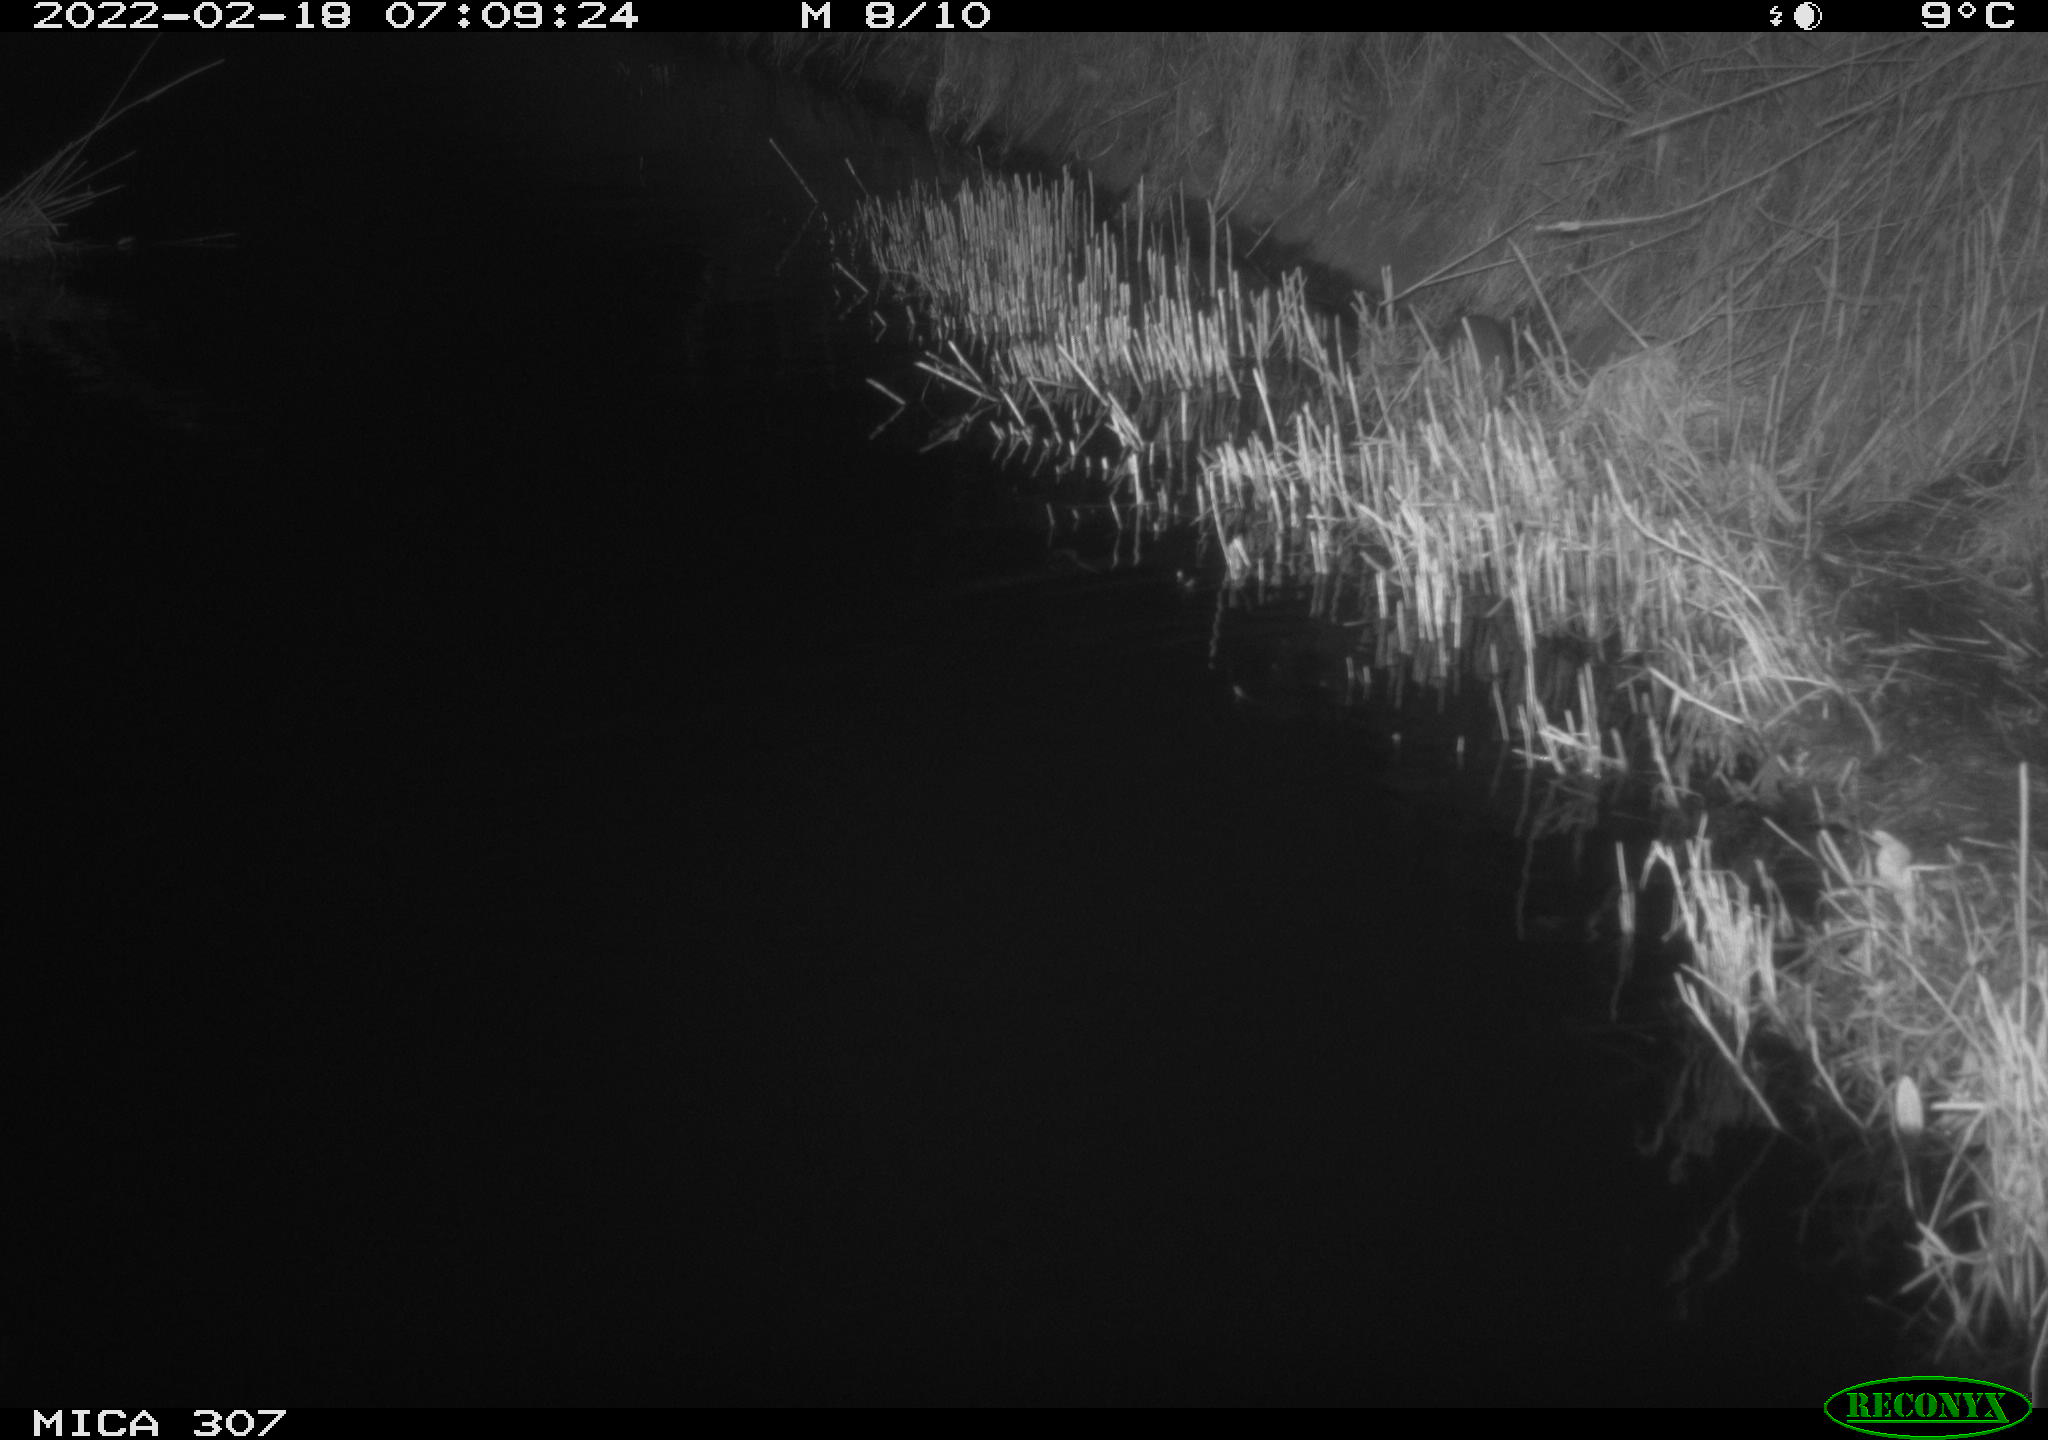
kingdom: Animalia
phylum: Chordata
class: Mammalia
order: Rodentia
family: Muridae
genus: Rattus
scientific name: Rattus norvegicus
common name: Brown rat
